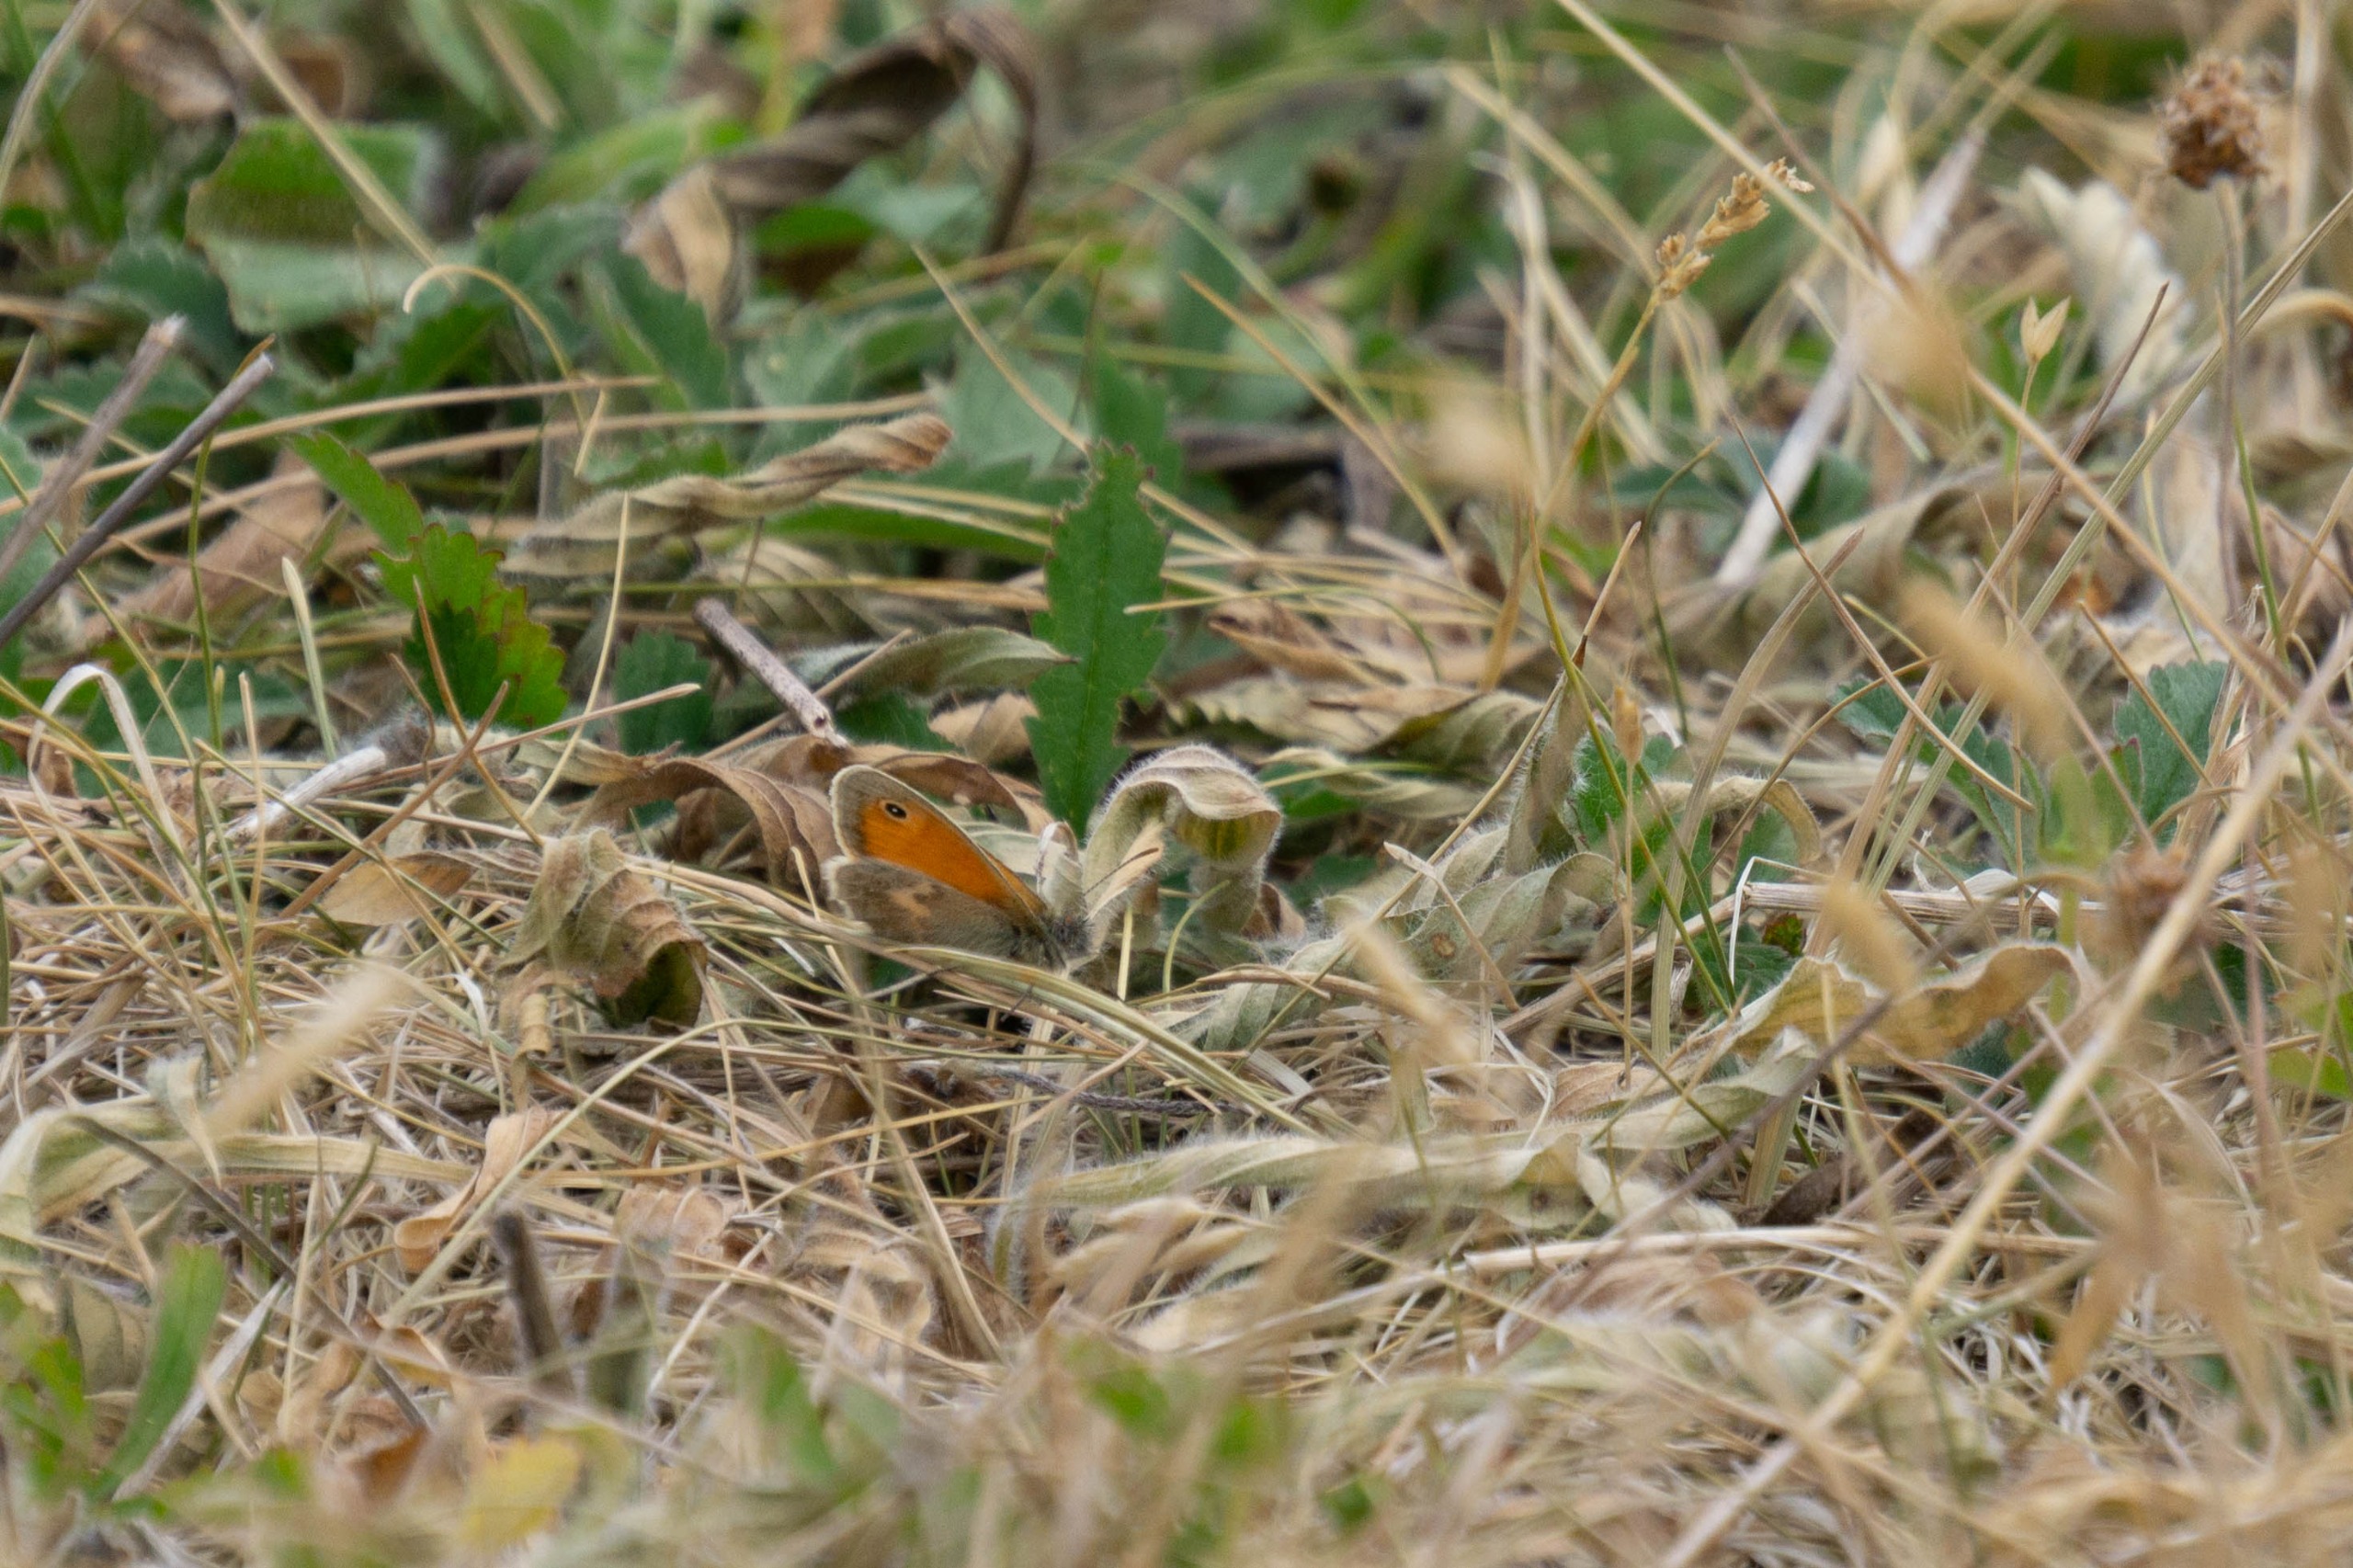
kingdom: Animalia
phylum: Arthropoda
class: Insecta
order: Lepidoptera
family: Nymphalidae
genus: Coenonympha
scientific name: Coenonympha pamphilus
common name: Okkergul randøje
